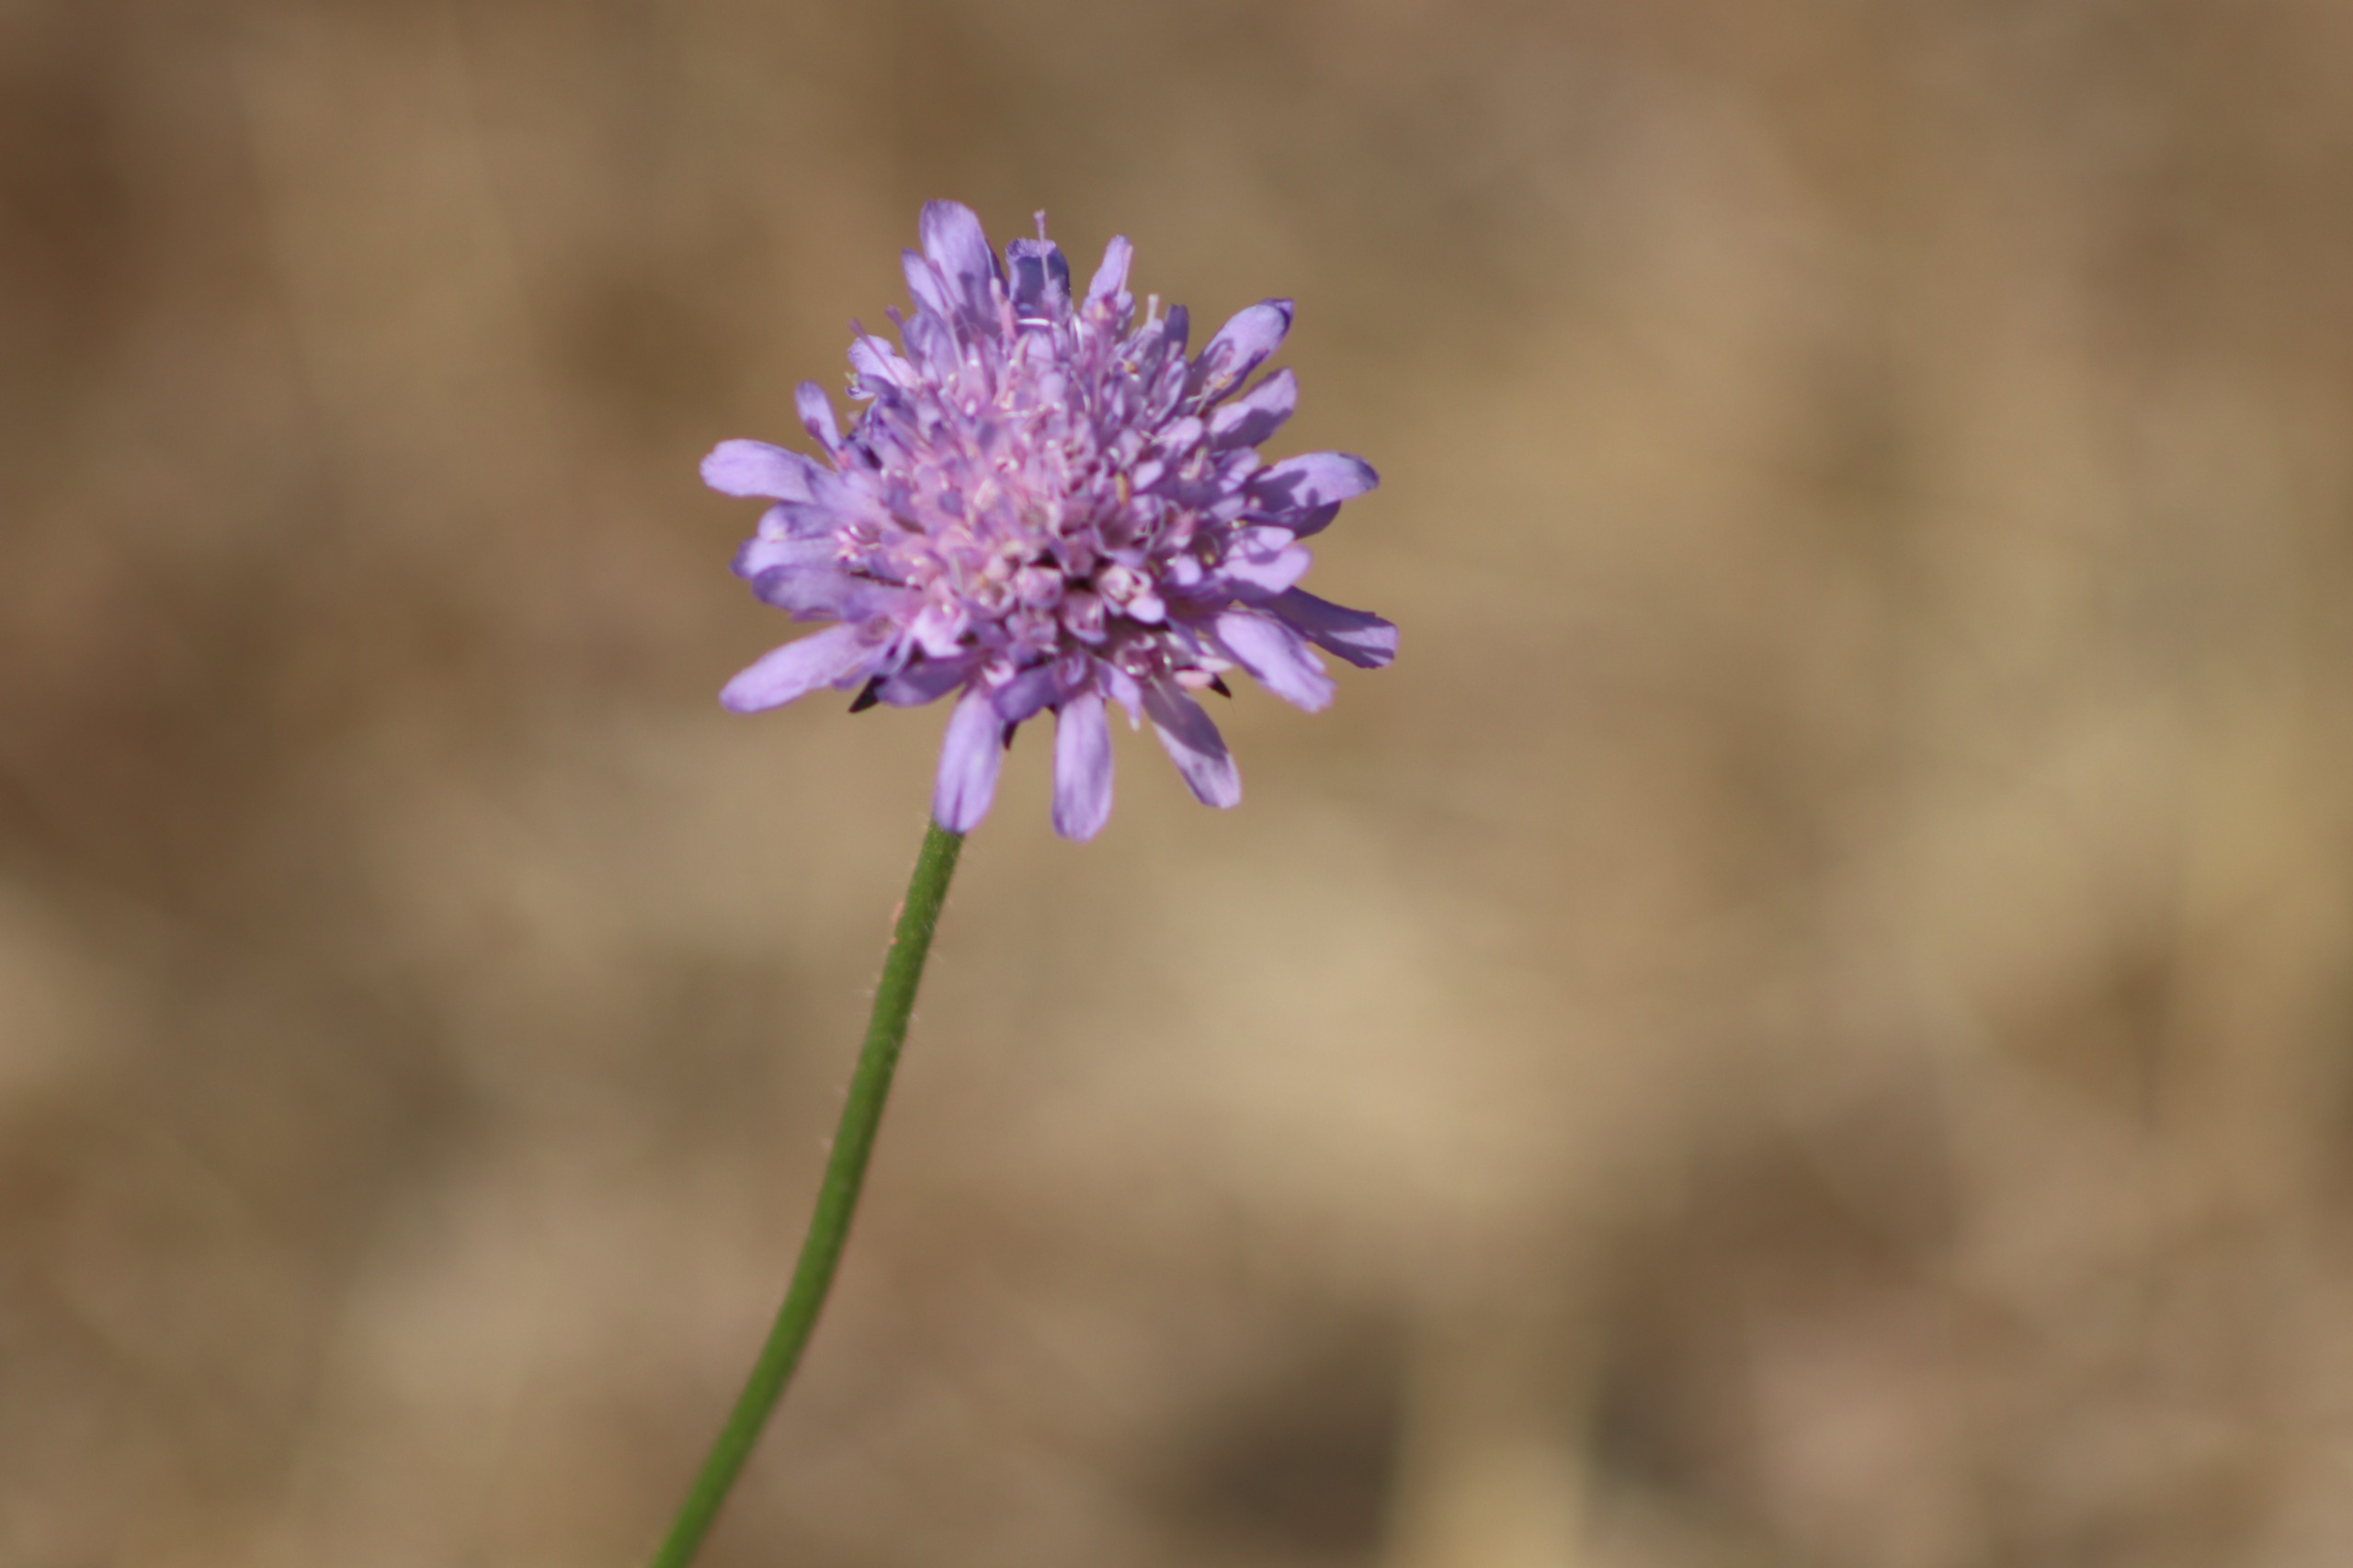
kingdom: Plantae
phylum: Tracheophyta
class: Magnoliopsida
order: Dipsacales
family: Caprifoliaceae
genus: Knautia
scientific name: Knautia arvensis
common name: Blåhat
